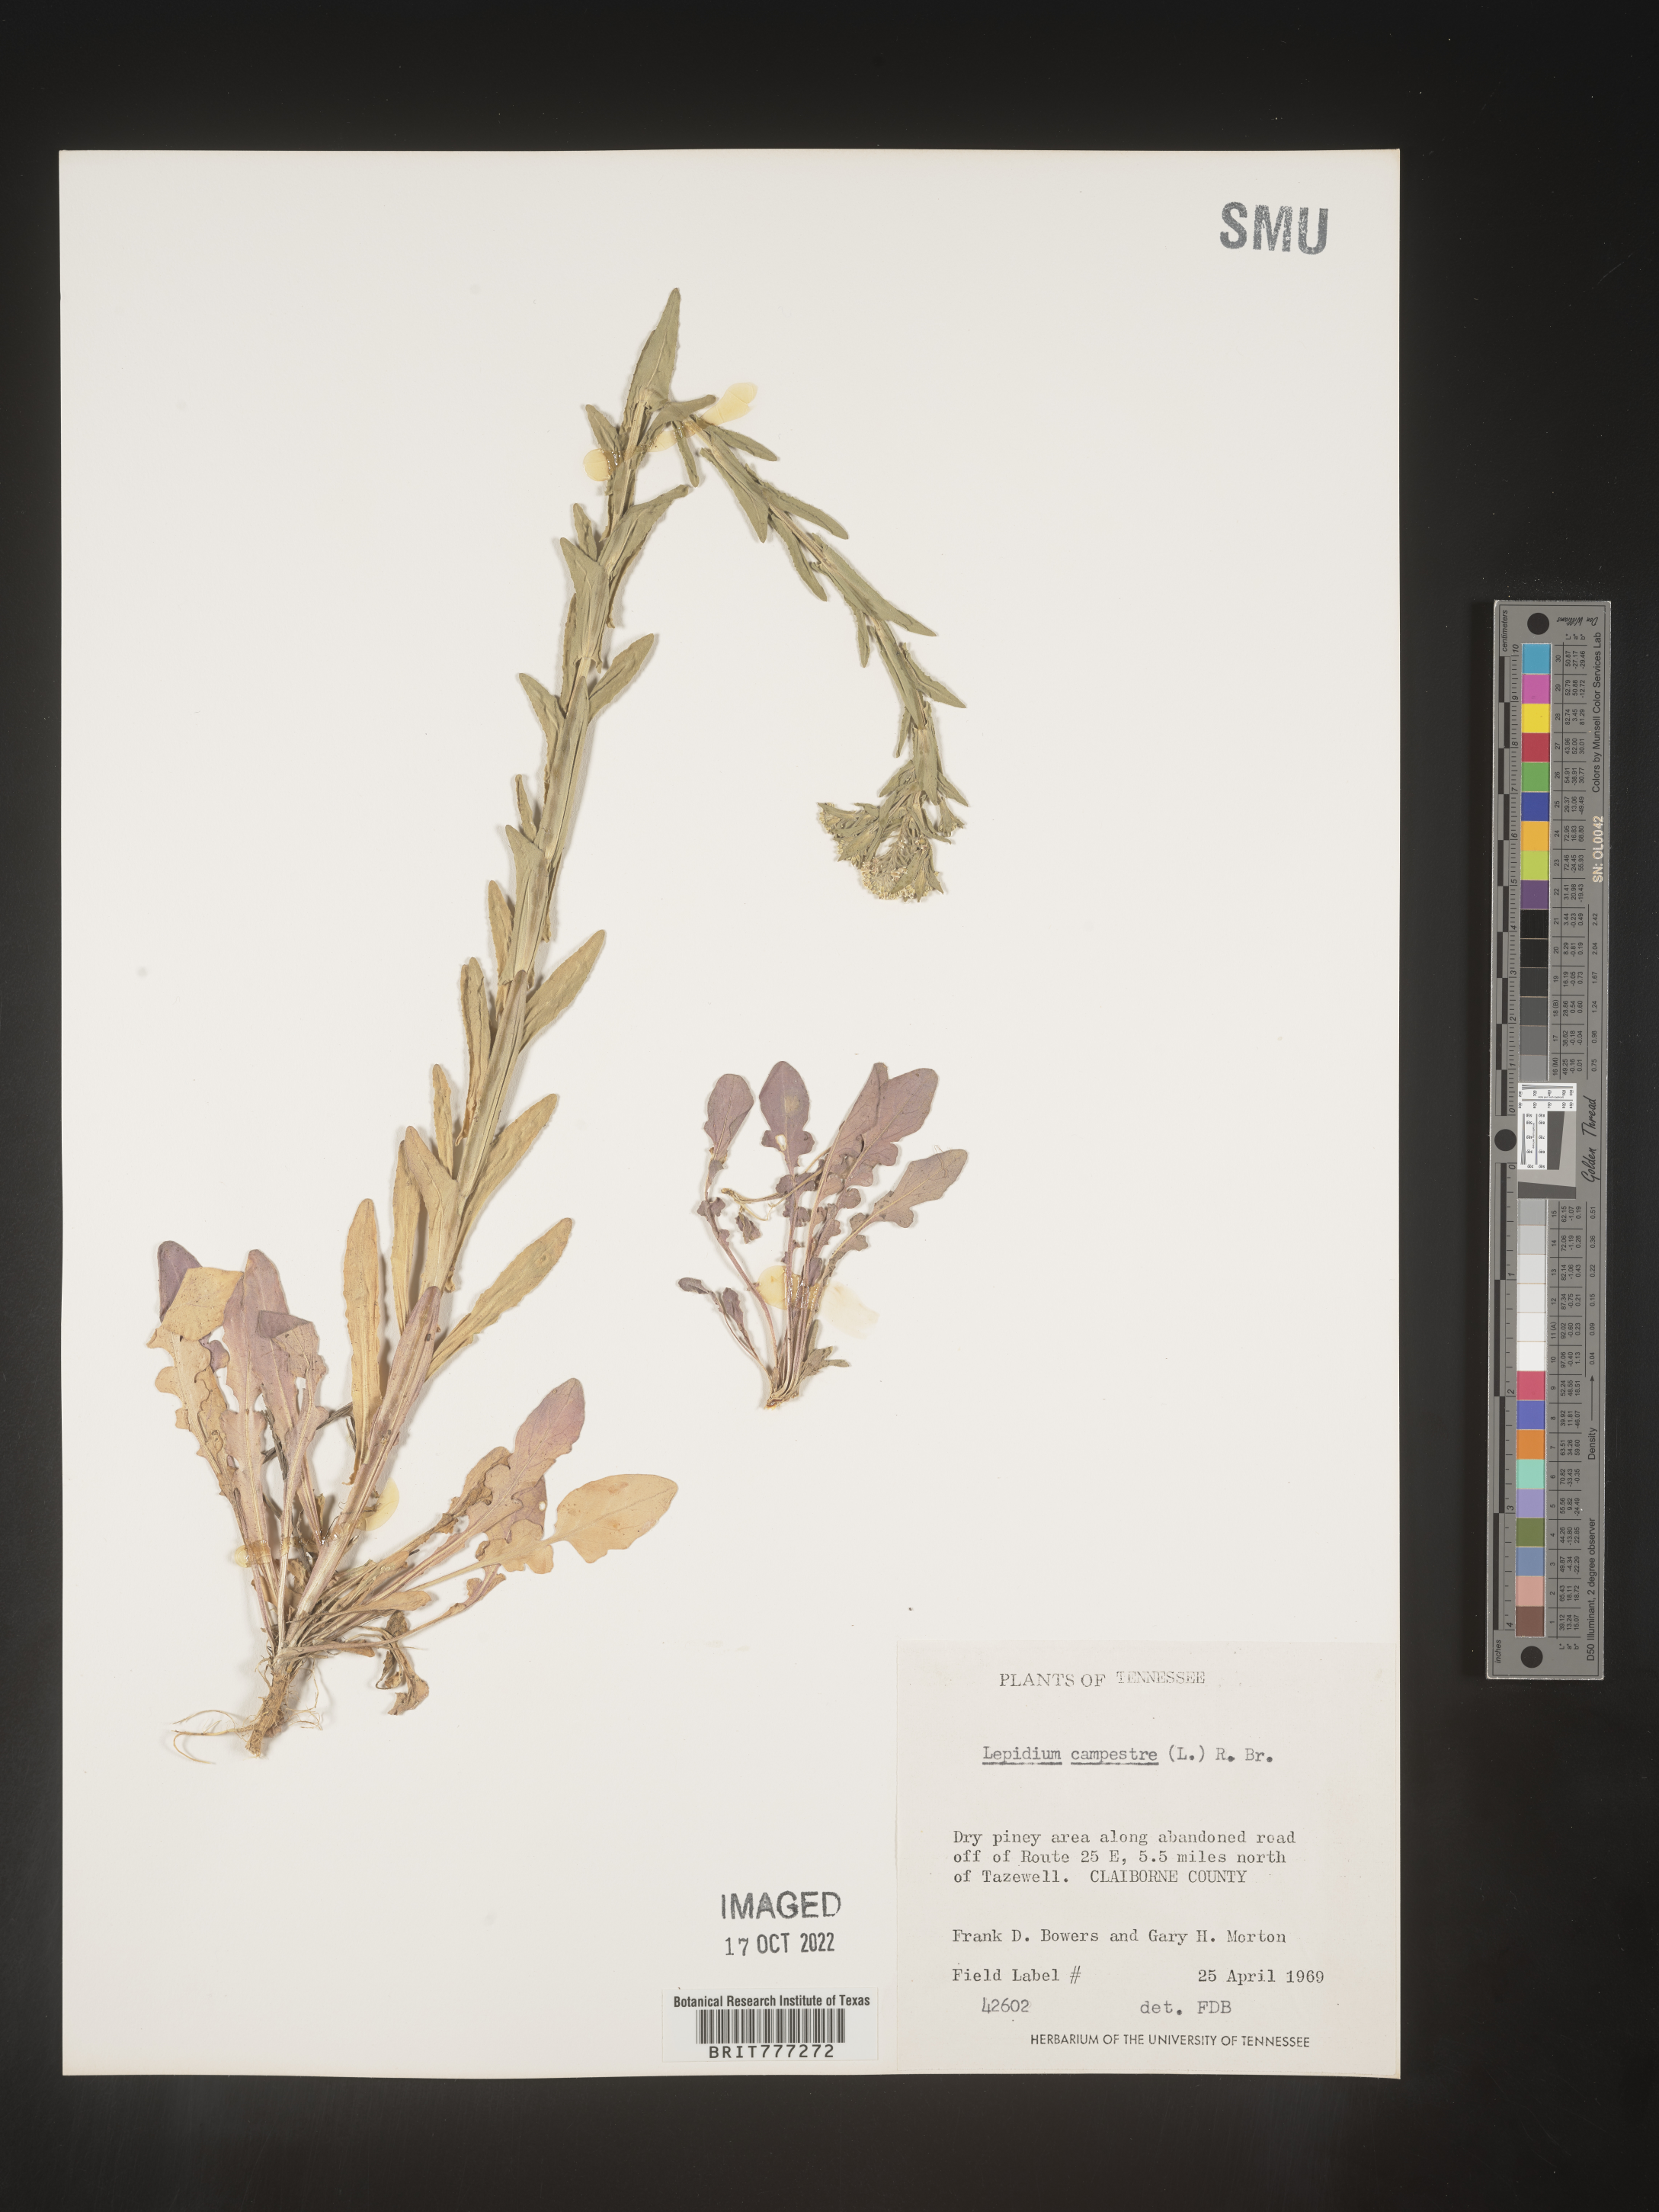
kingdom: Plantae
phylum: Tracheophyta
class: Magnoliopsida
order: Brassicales
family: Brassicaceae
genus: Lepidium
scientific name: Lepidium campestre
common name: Field pepperwort
